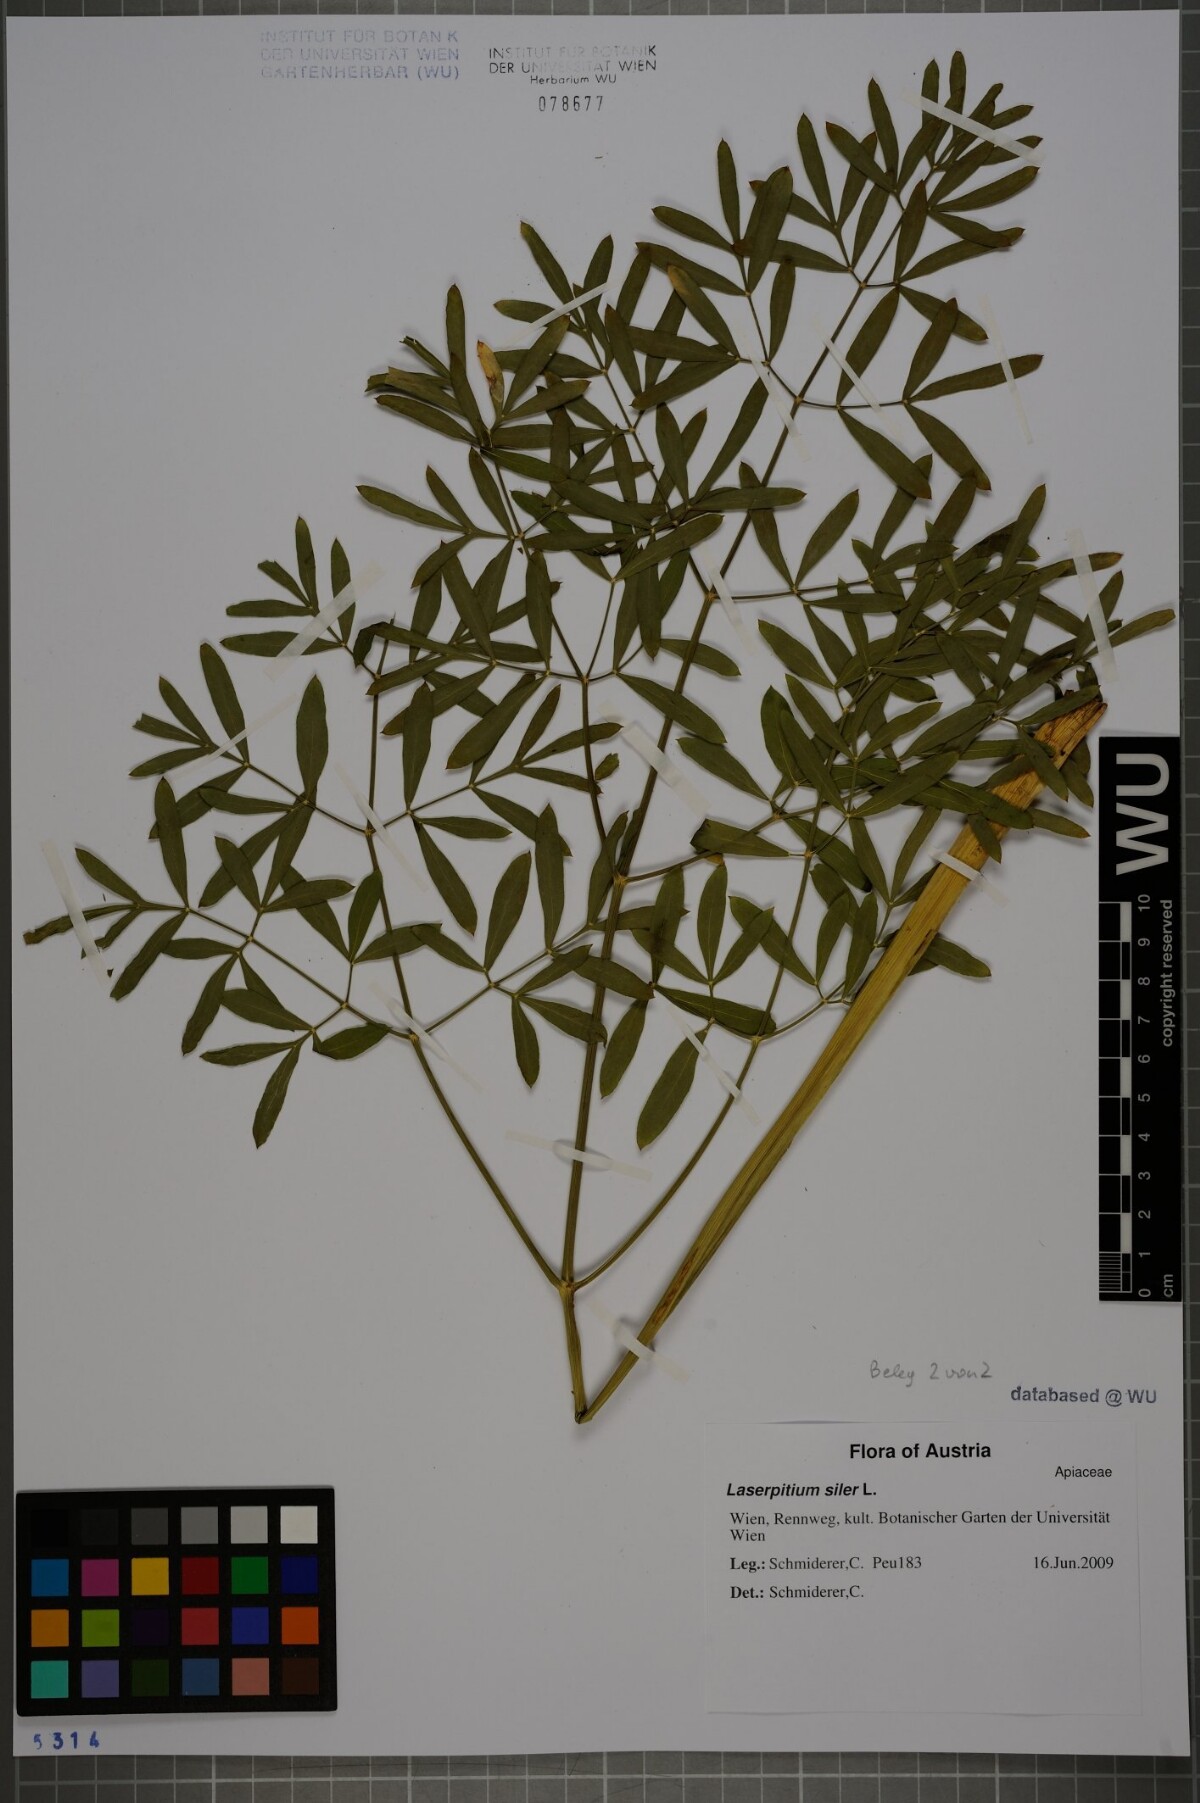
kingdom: Plantae
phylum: Tracheophyta
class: Magnoliopsida
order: Apiales
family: Apiaceae
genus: Siler
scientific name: Siler montanum
